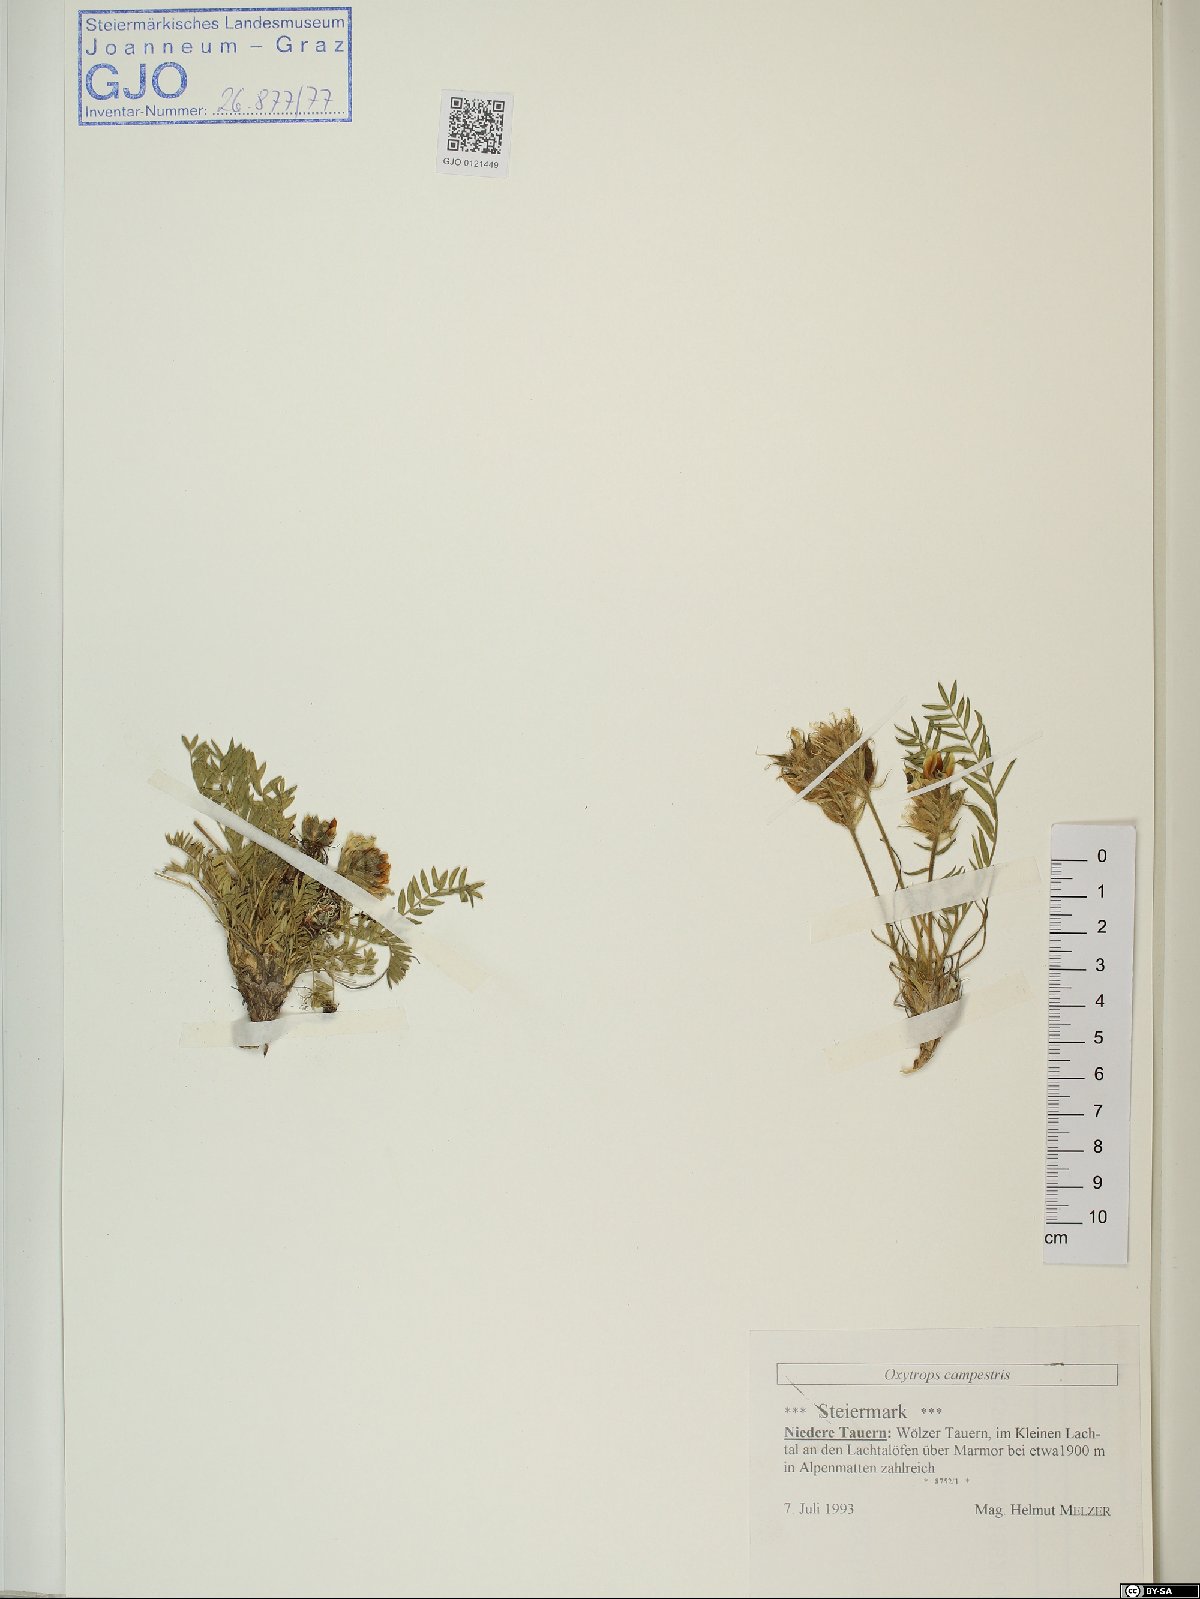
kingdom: Plantae
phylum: Tracheophyta
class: Magnoliopsida
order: Fabales
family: Fabaceae
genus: Oxytropis
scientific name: Oxytropis campestris
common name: Field locoweed
